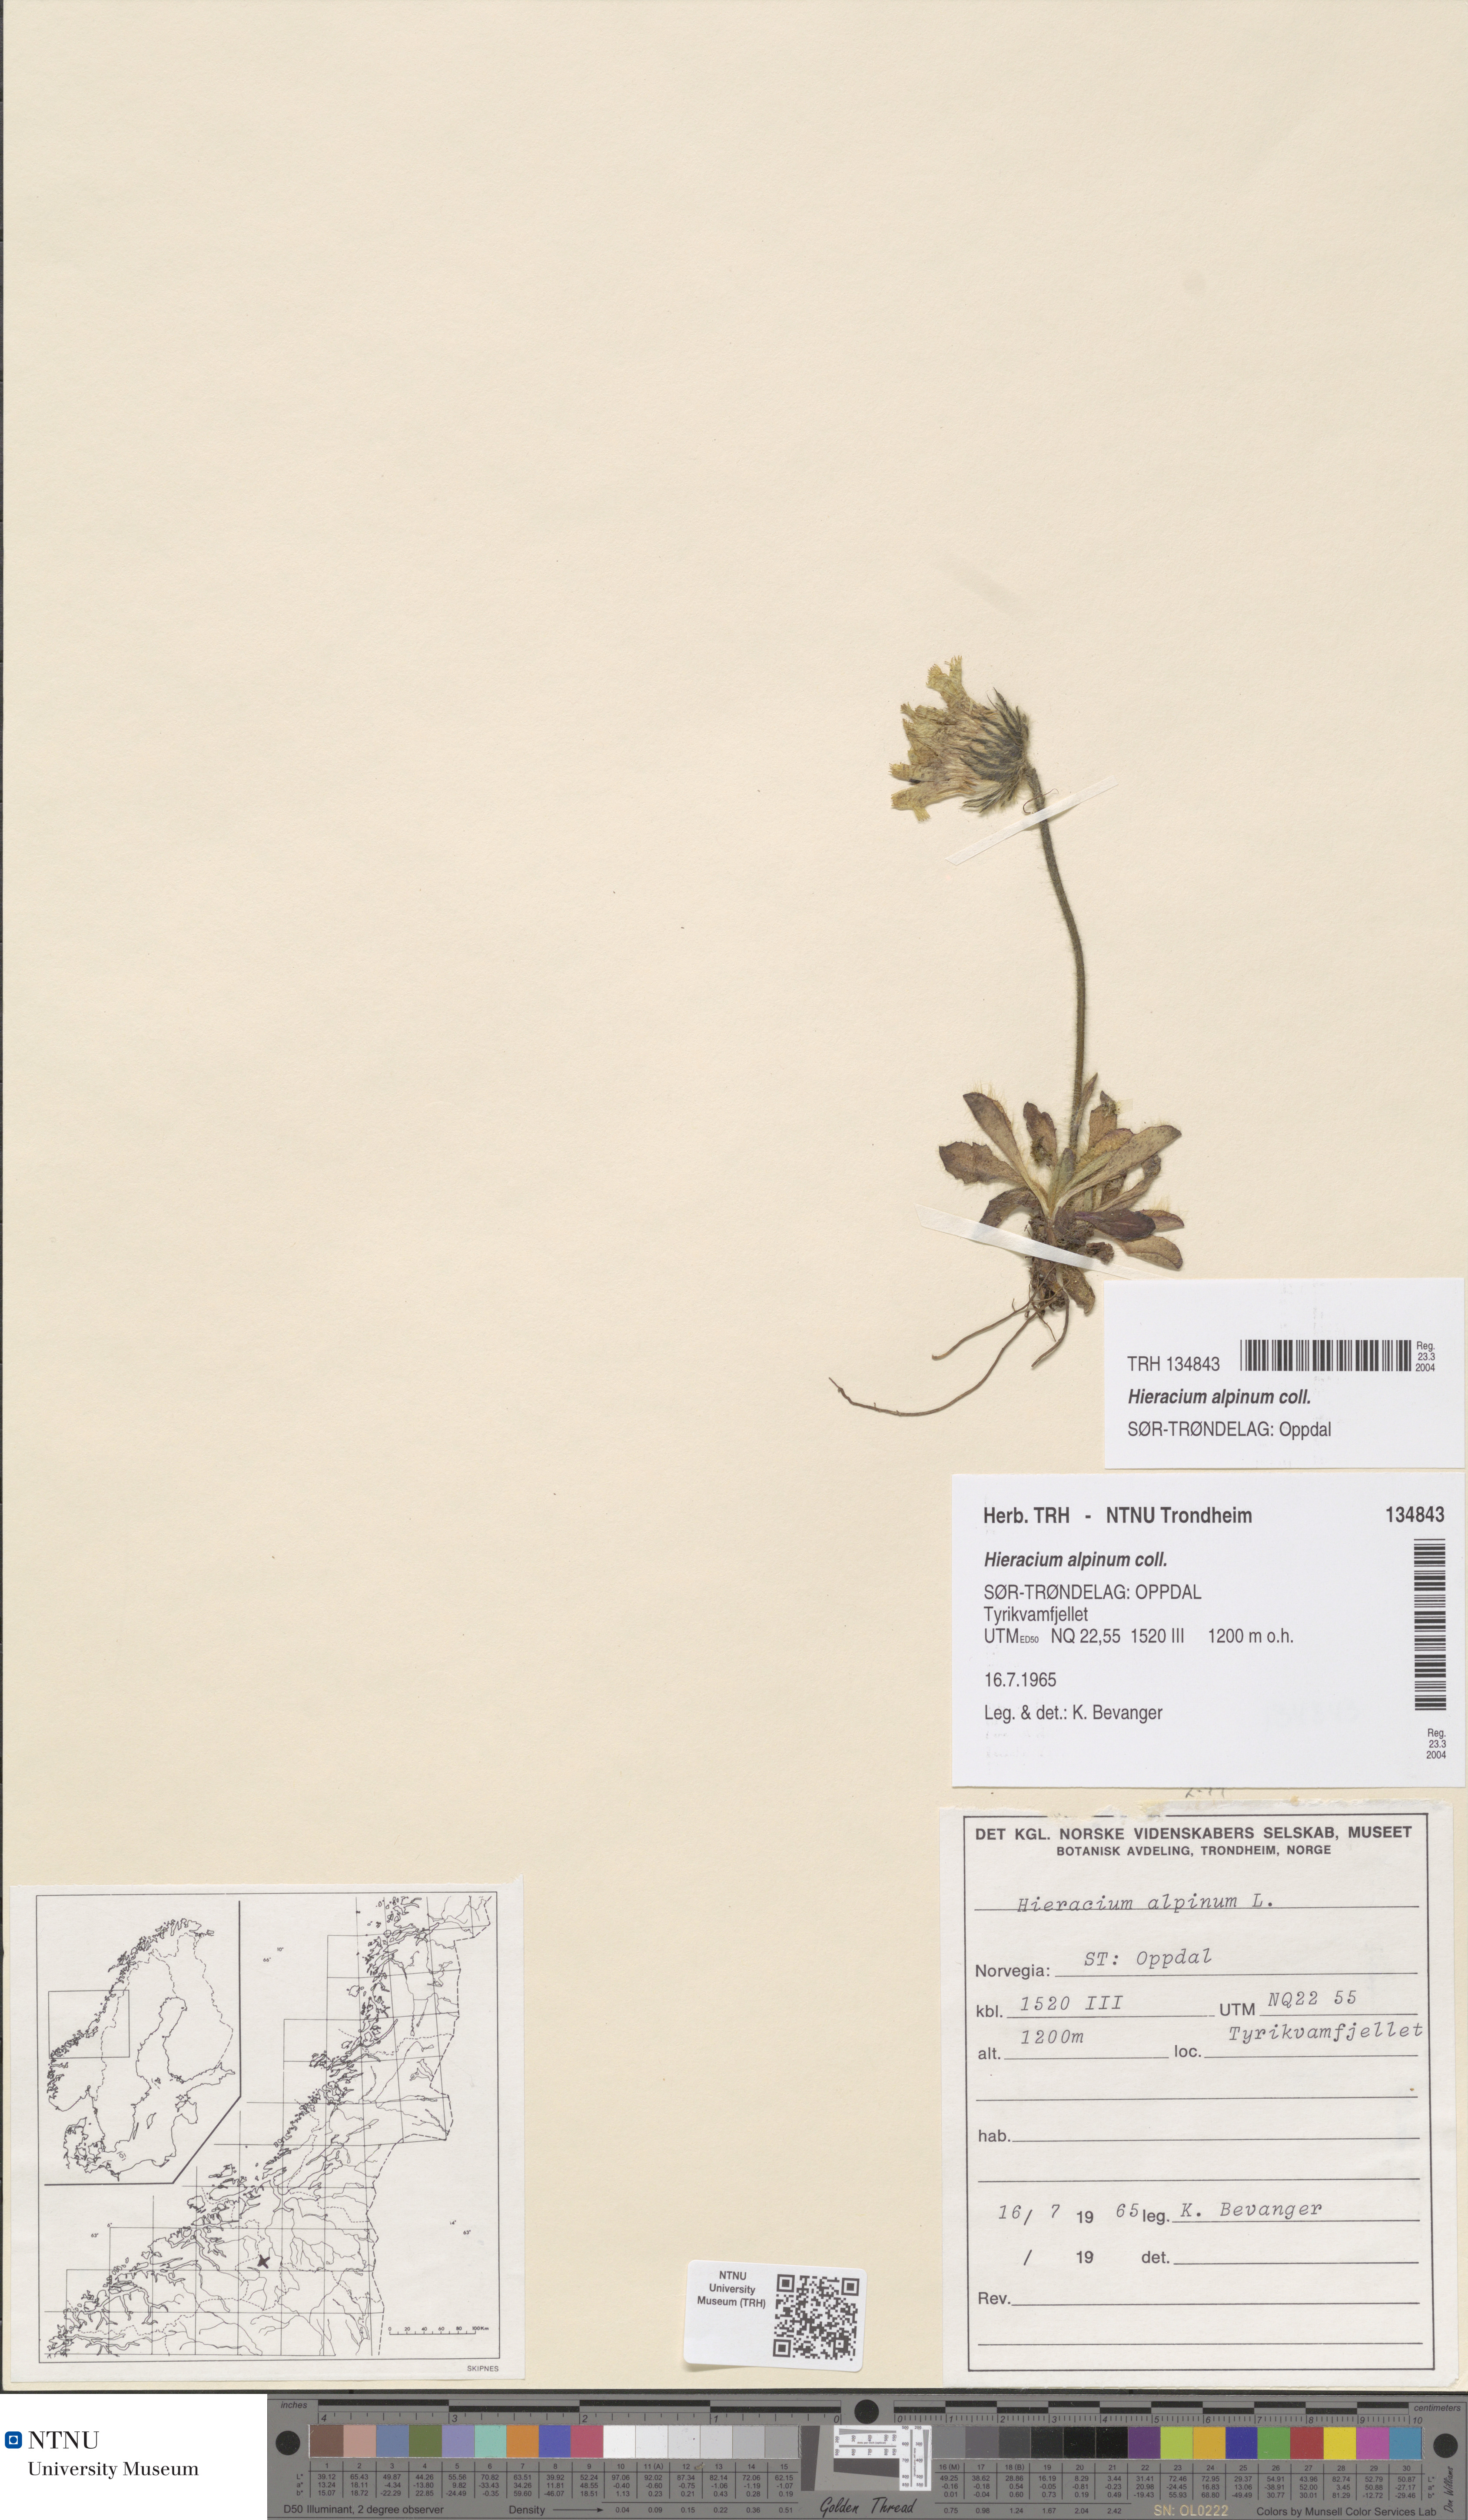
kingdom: Plantae
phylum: Tracheophyta
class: Magnoliopsida
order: Asterales
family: Asteraceae
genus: Hieracium
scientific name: Hieracium alpinum
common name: Alpine hawkweed
